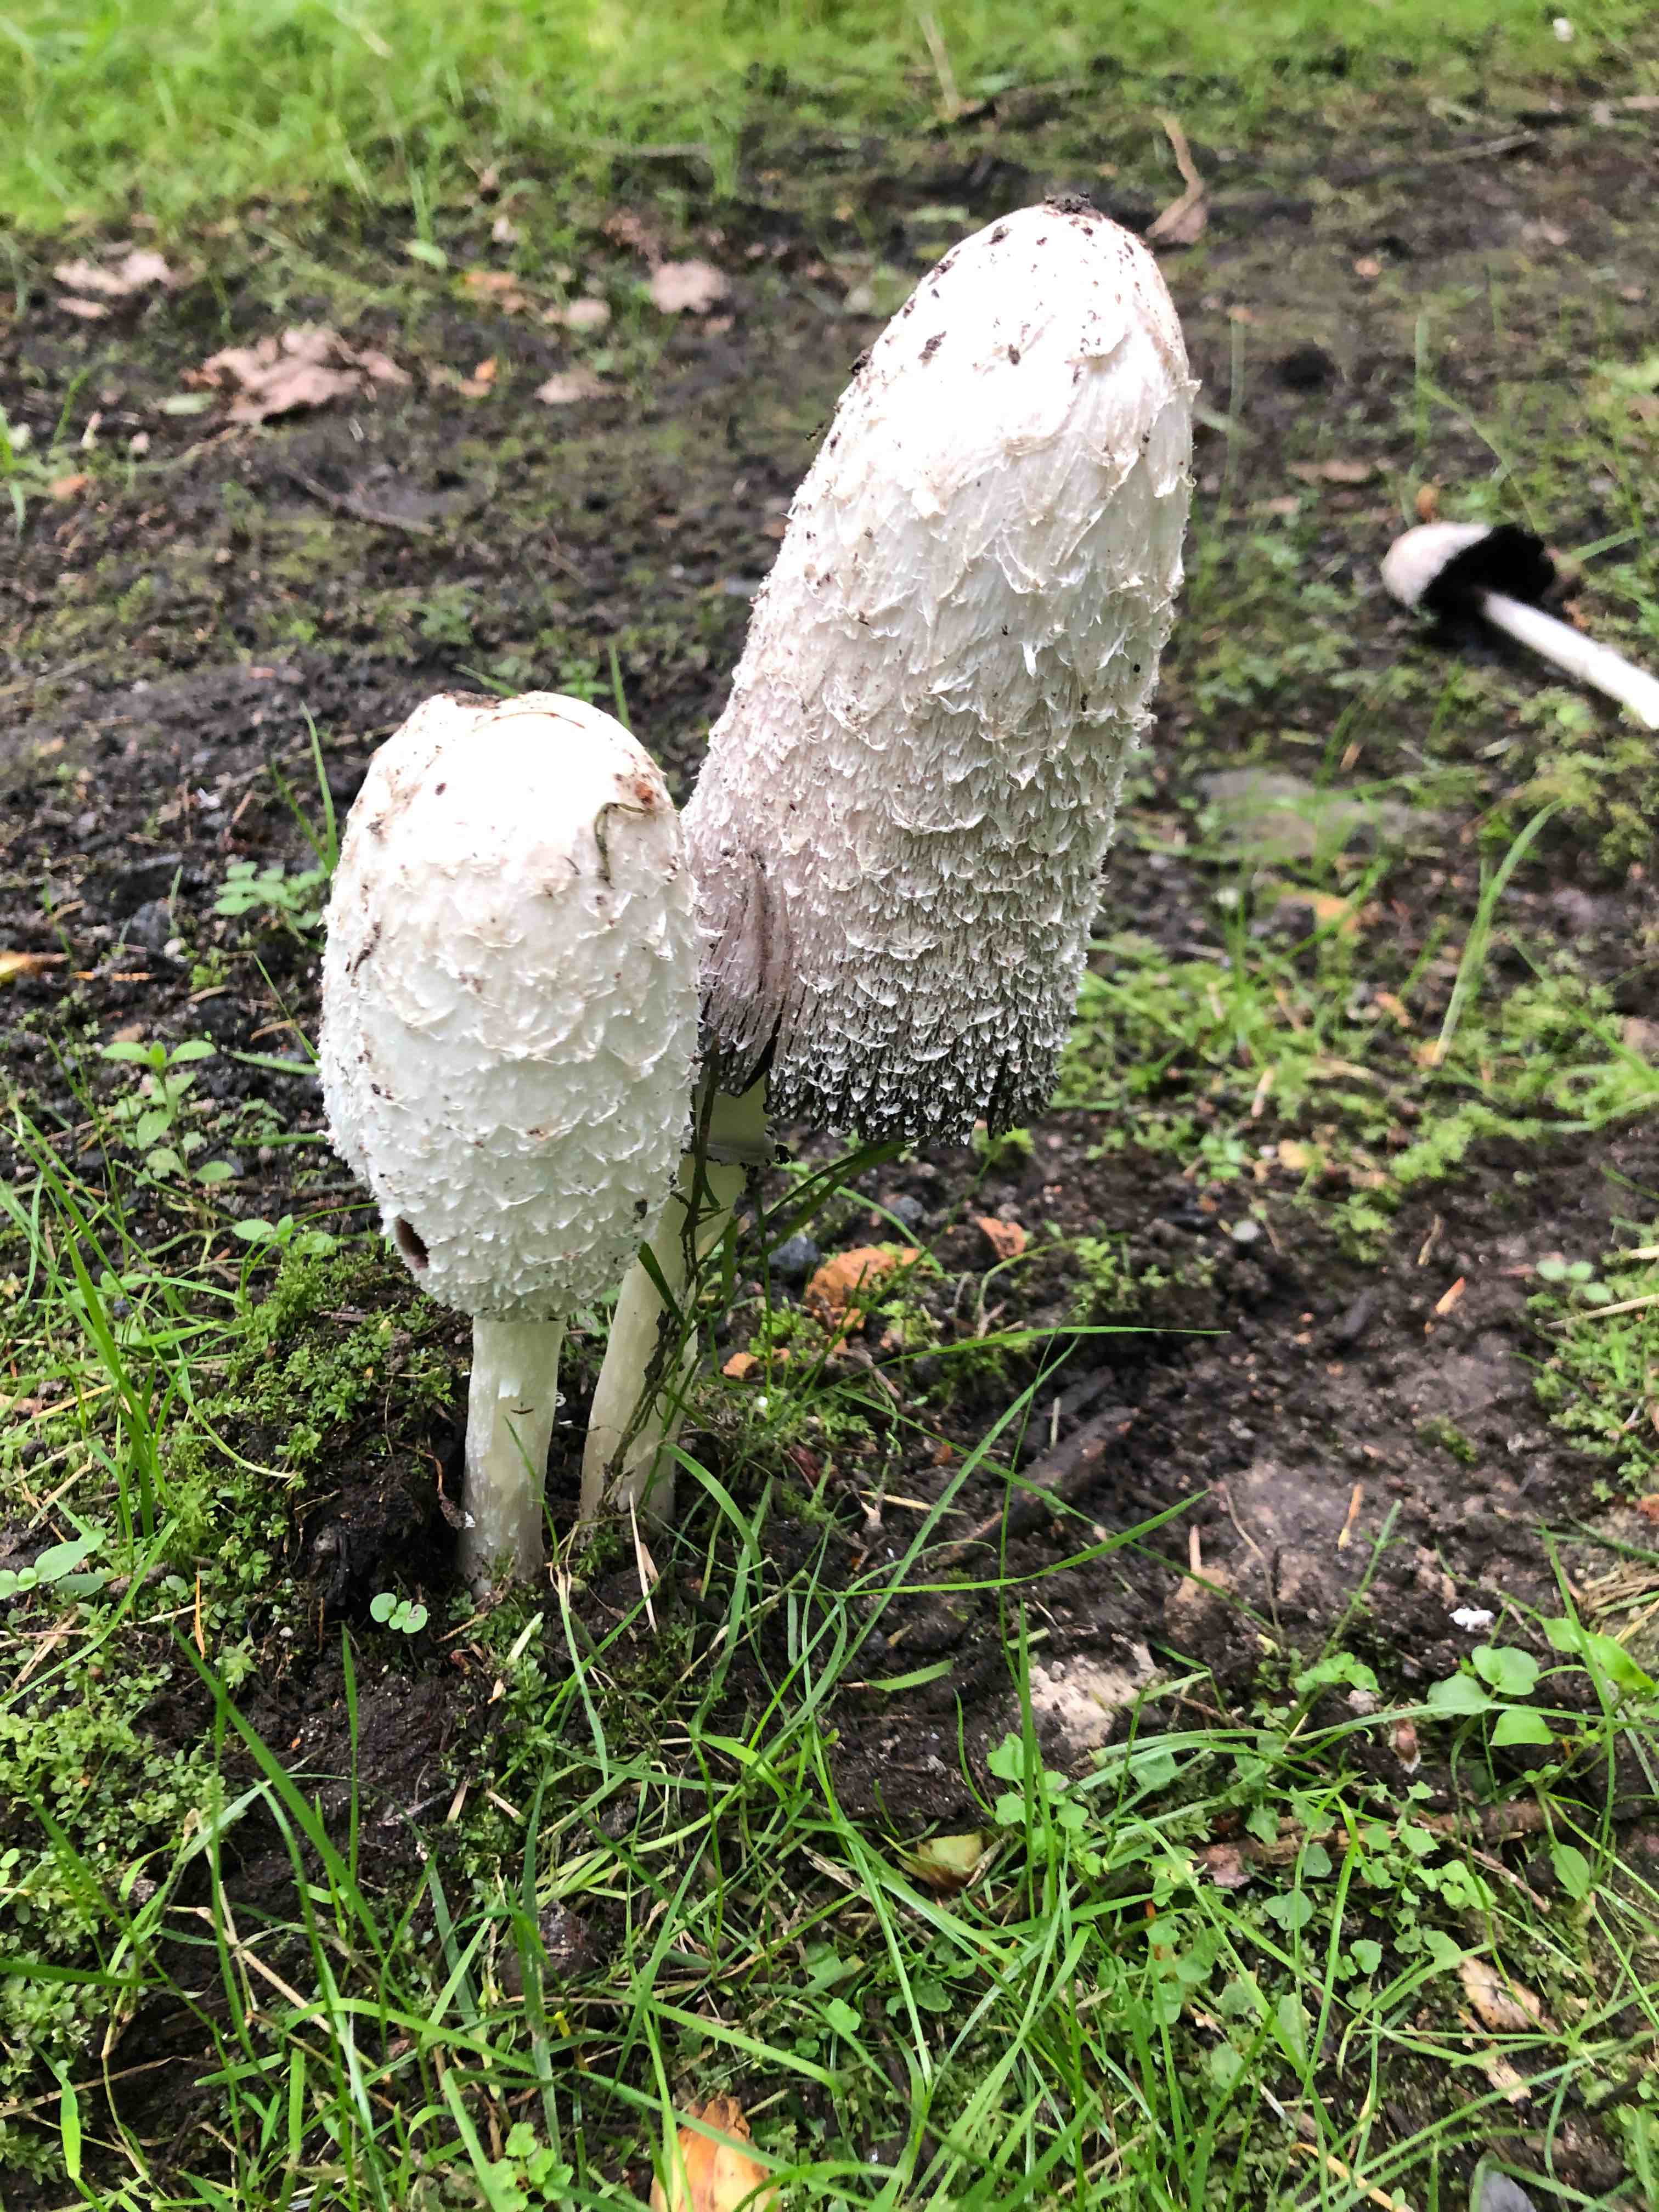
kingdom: Fungi
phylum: Basidiomycota
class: Agaricomycetes
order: Agaricales
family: Agaricaceae
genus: Coprinus
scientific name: Coprinus comatus
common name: stor parykhat
